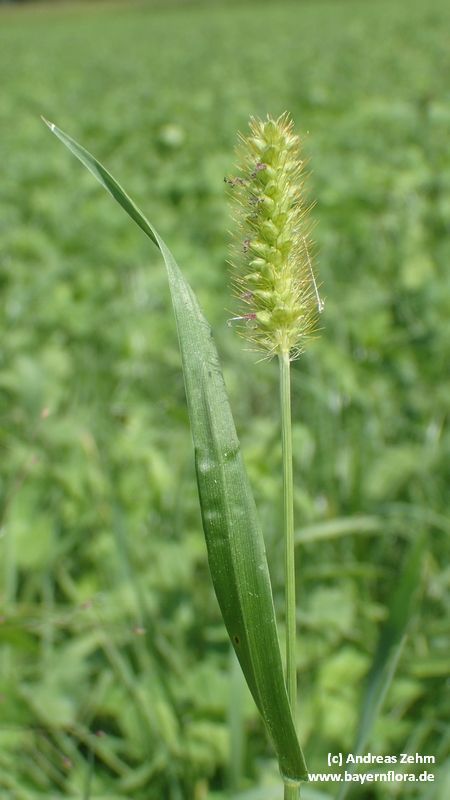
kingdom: Plantae
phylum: Tracheophyta
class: Liliopsida
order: Poales
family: Poaceae
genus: Setaria
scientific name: Setaria pumila
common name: Yellow bristle-grass
